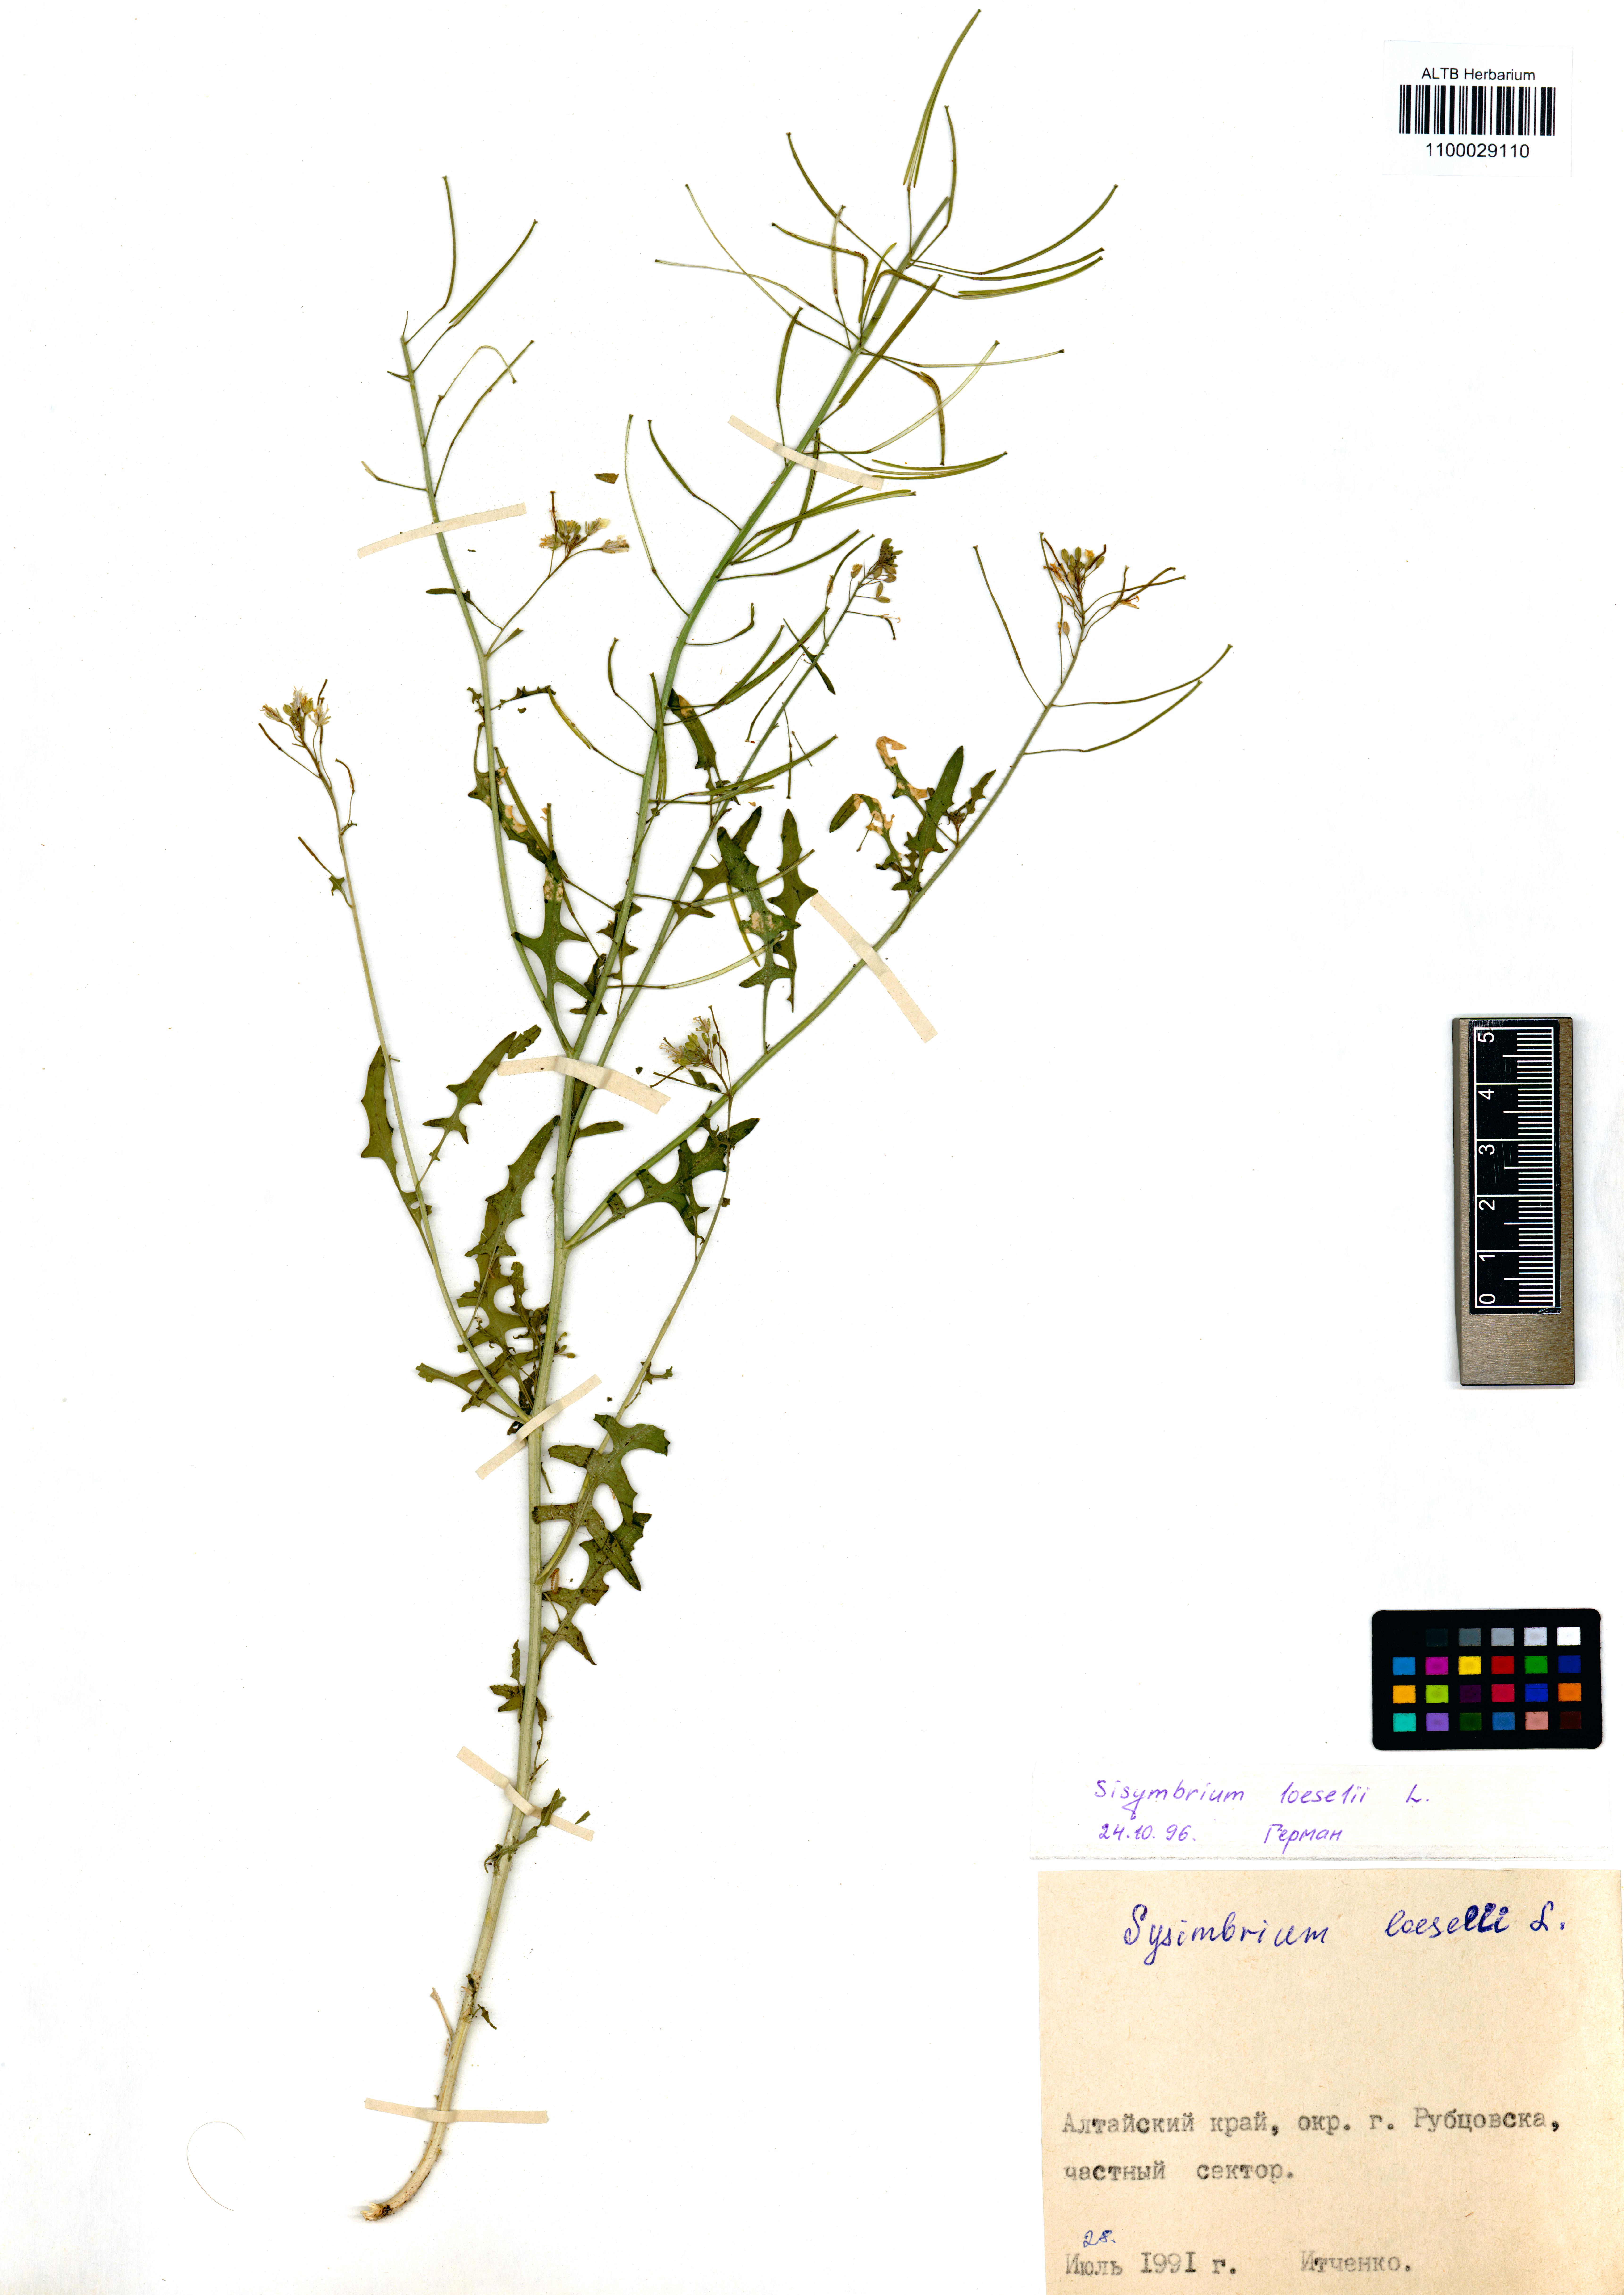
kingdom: Plantae
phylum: Tracheophyta
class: Magnoliopsida
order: Brassicales
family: Brassicaceae
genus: Sisymbrium
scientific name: Sisymbrium loeselii
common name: False london-rocket
